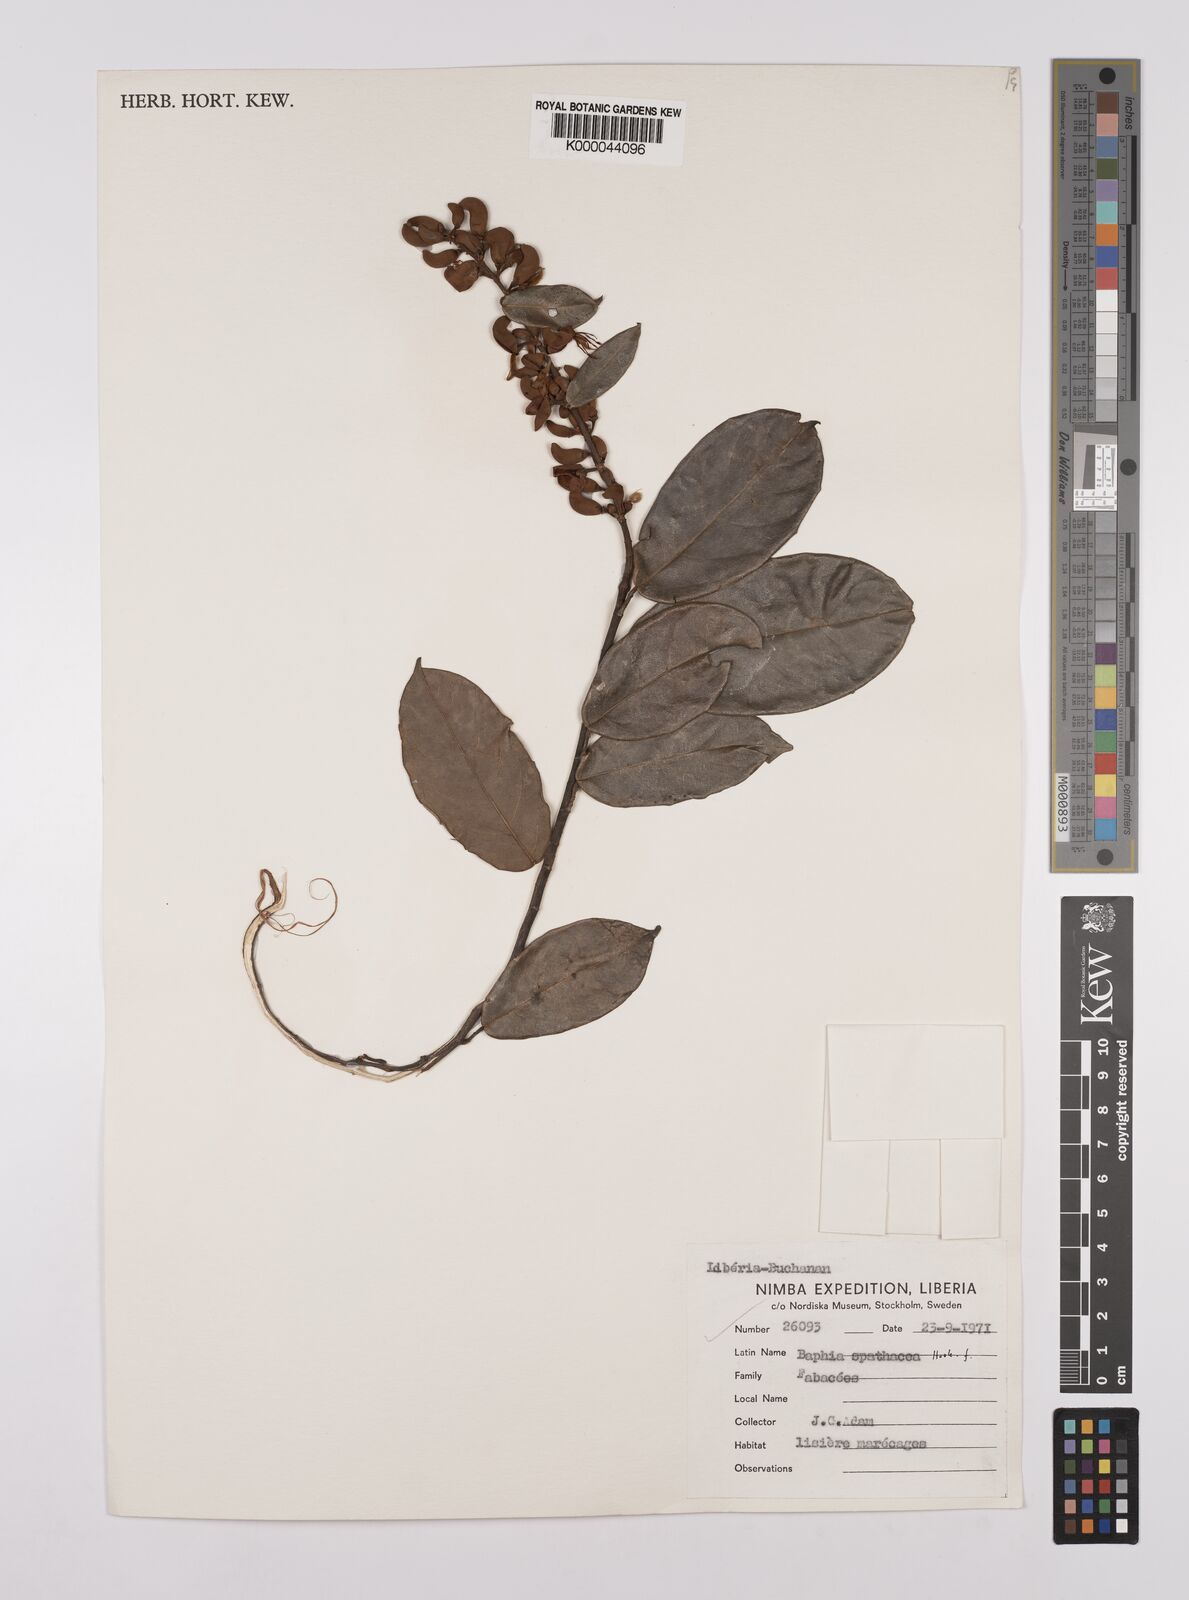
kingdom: Plantae
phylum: Tracheophyta
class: Magnoliopsida
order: Fabales
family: Fabaceae
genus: Baphia
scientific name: Baphia spathacea
